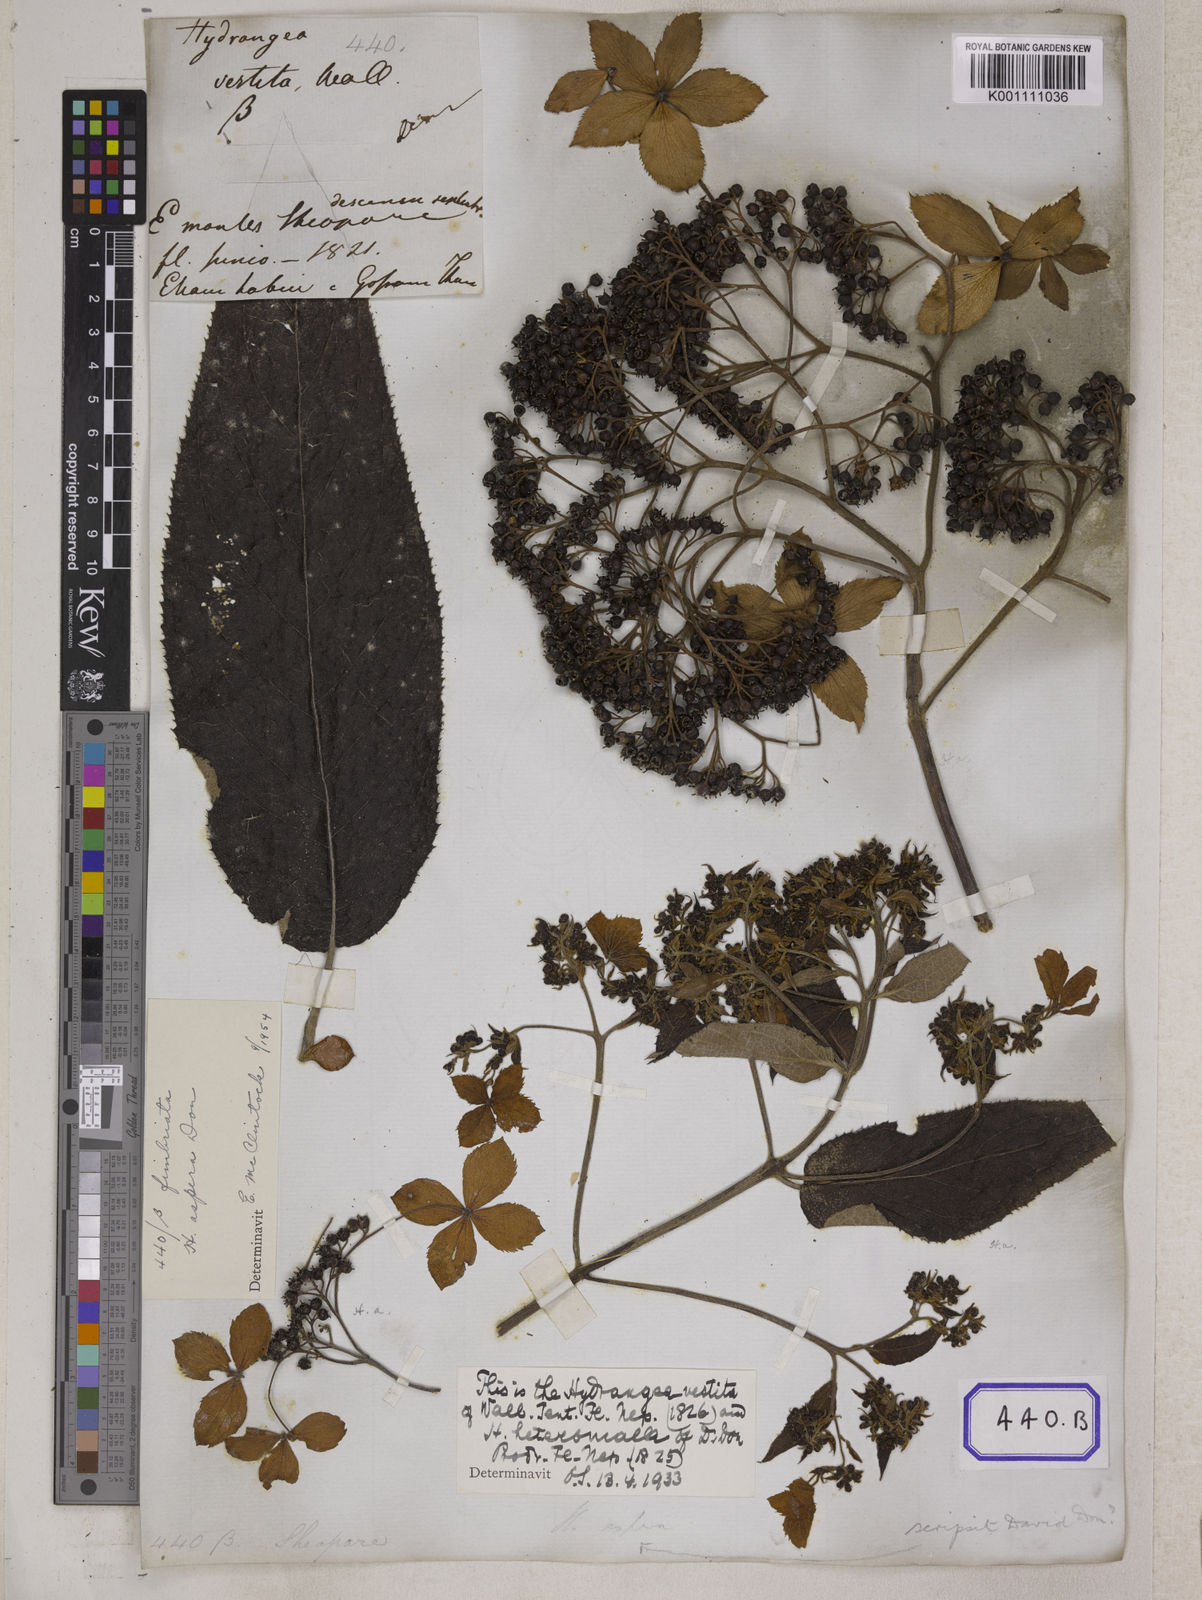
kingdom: Plantae
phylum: Tracheophyta
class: Magnoliopsida
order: Cornales
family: Hydrangeaceae
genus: Hydrangea
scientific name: Hydrangea
